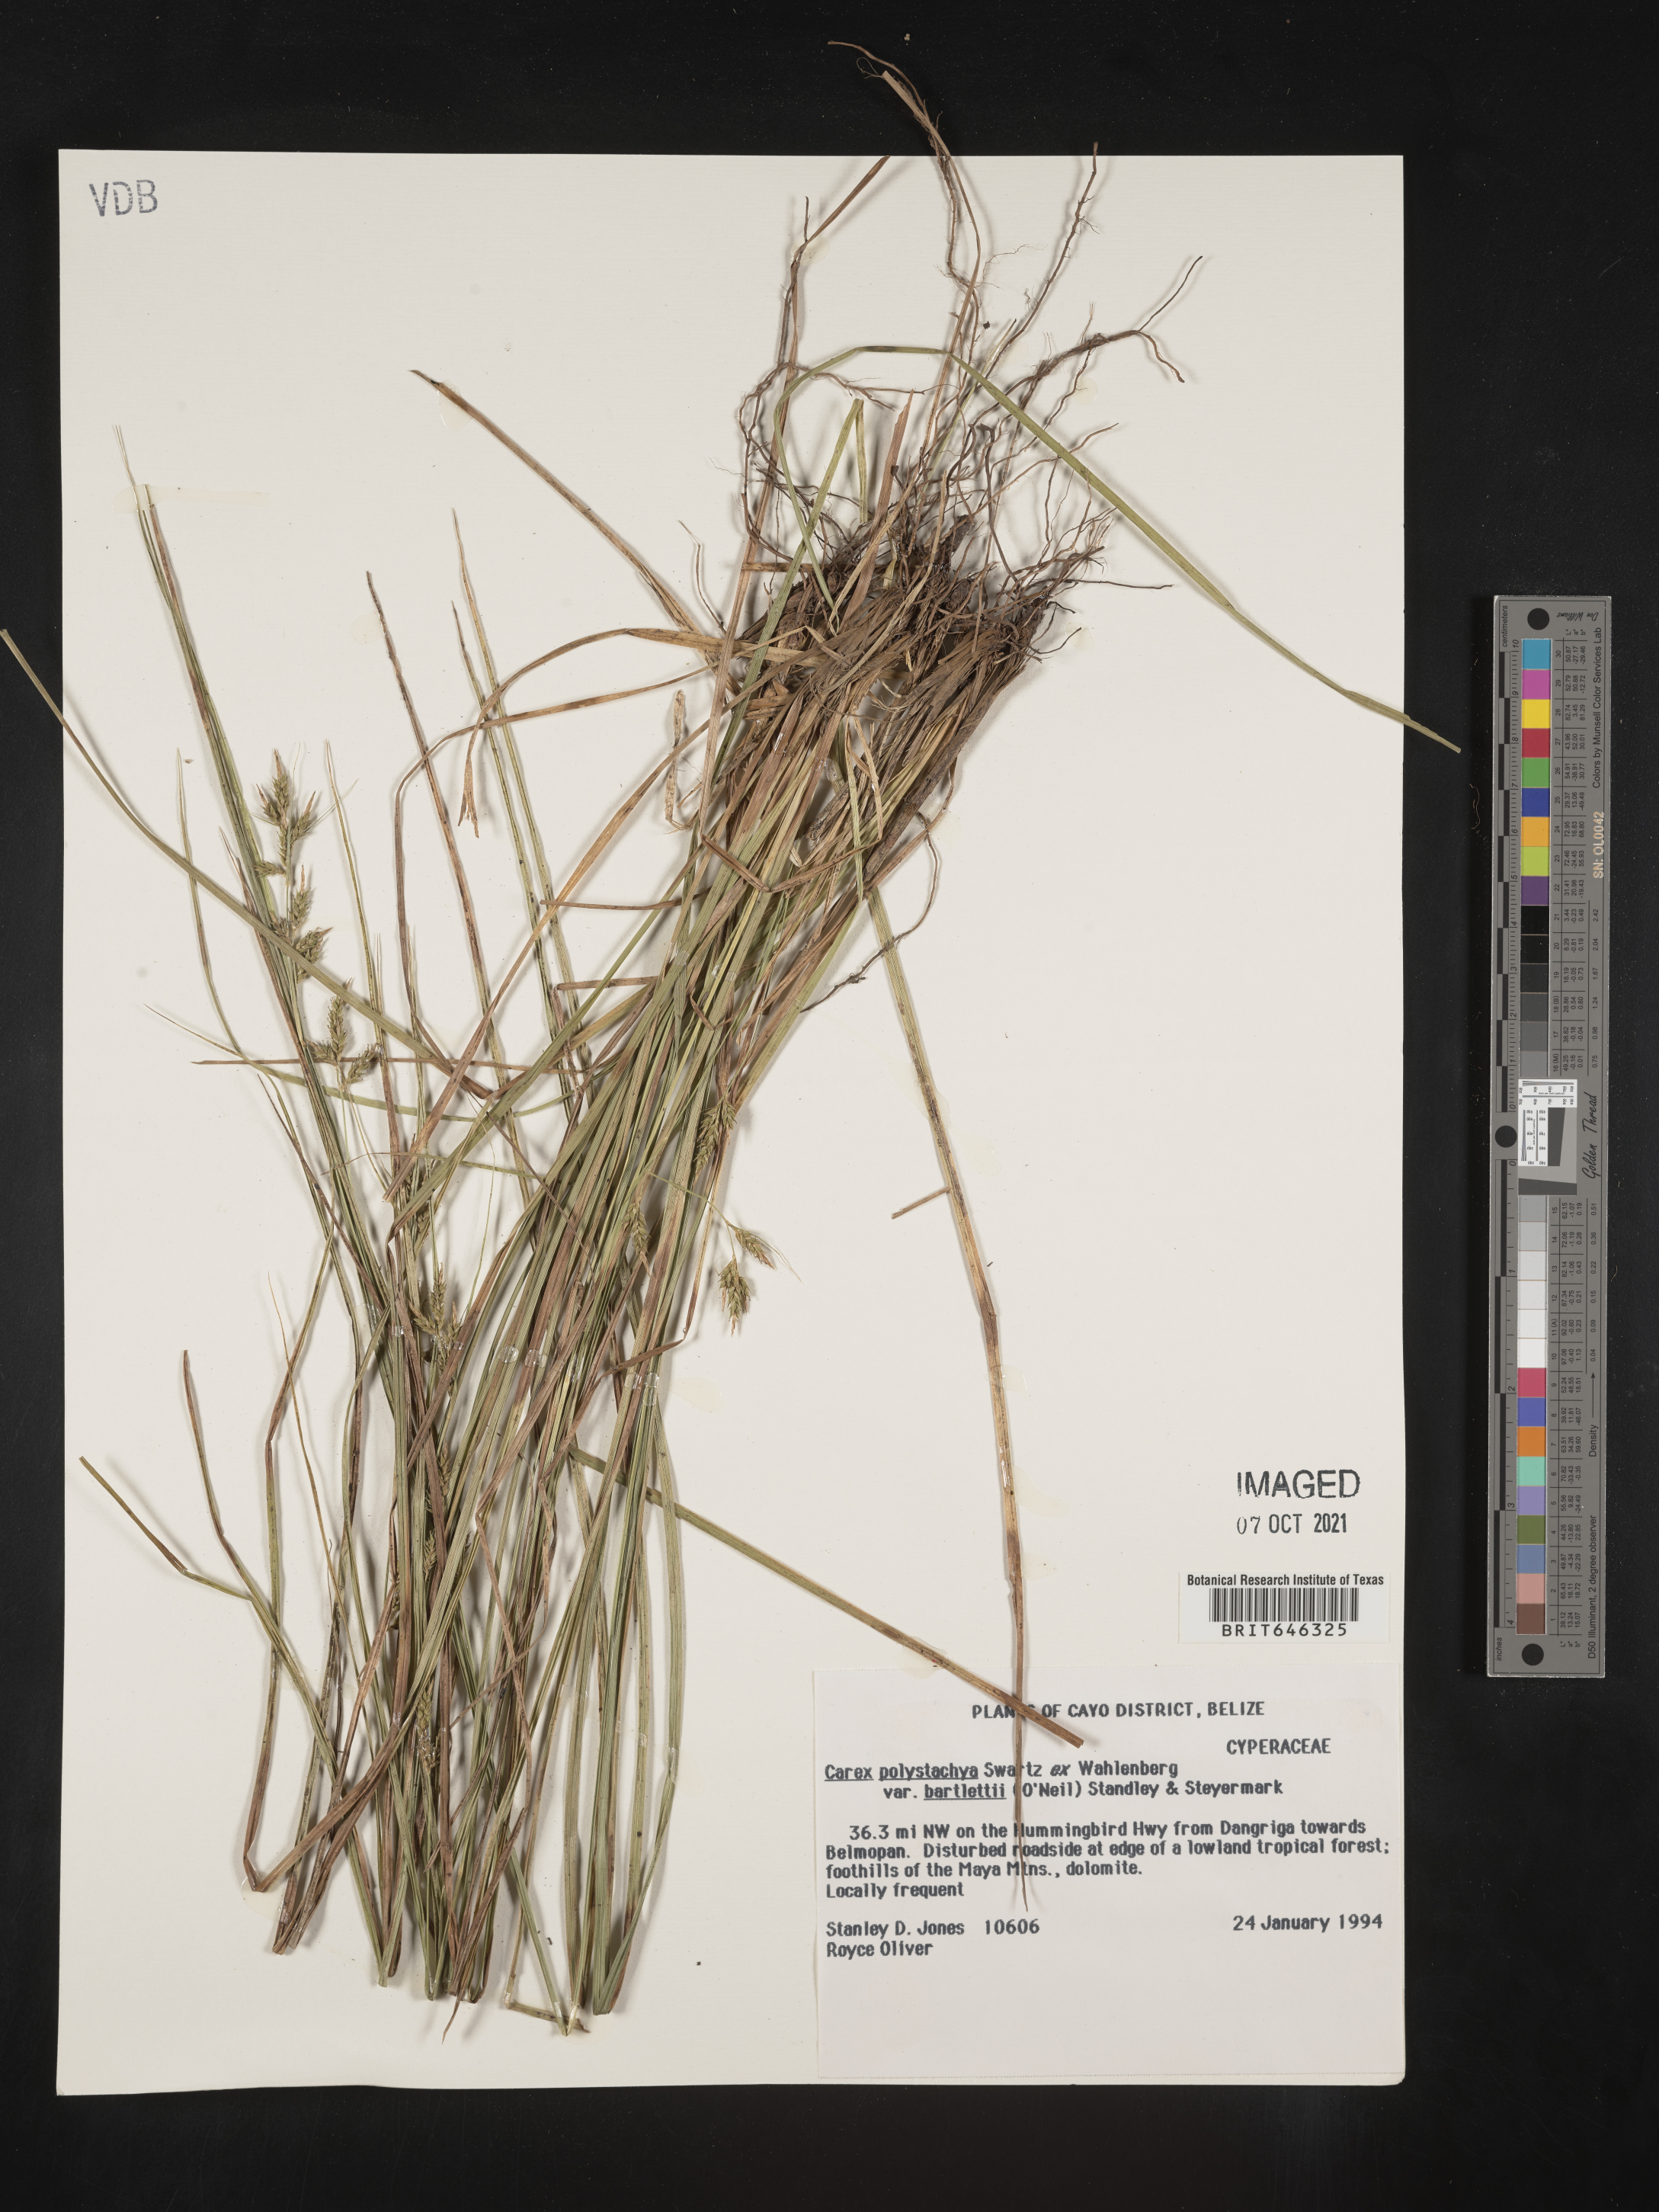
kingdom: Plantae
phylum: Tracheophyta
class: Liliopsida
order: Poales
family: Cyperaceae
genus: Carex
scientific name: Carex polystachya
